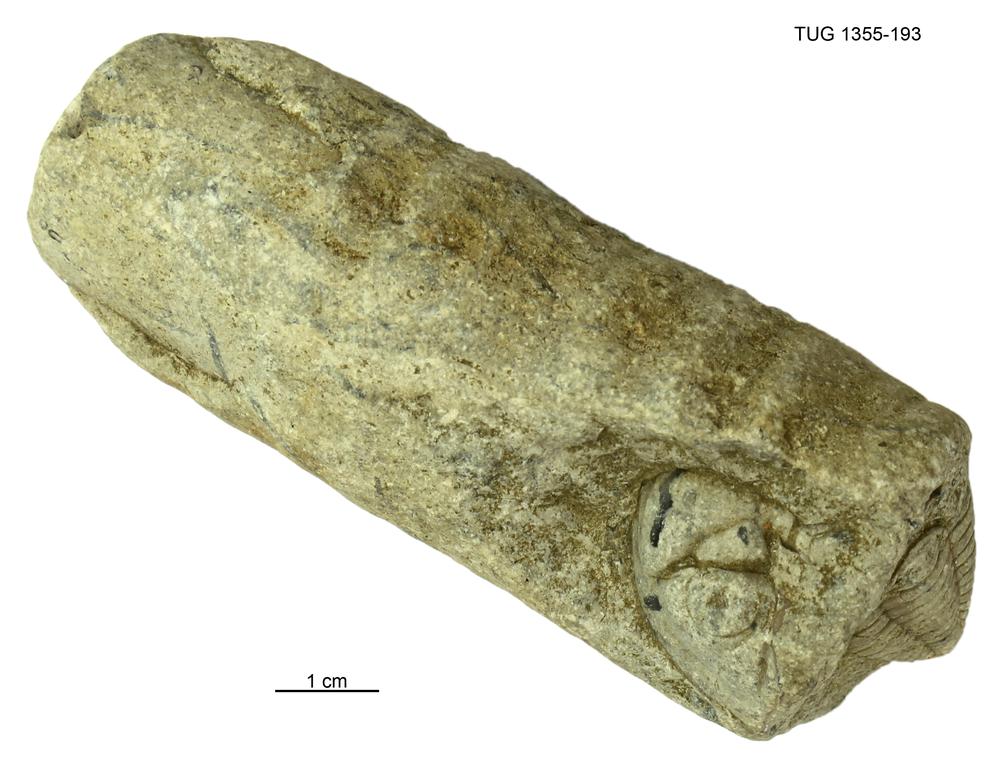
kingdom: Animalia
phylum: Arthropoda
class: Trilobita
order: Phacopida
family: Pterygometopidae
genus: Toxochasmops
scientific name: Toxochasmops vormsiensis
